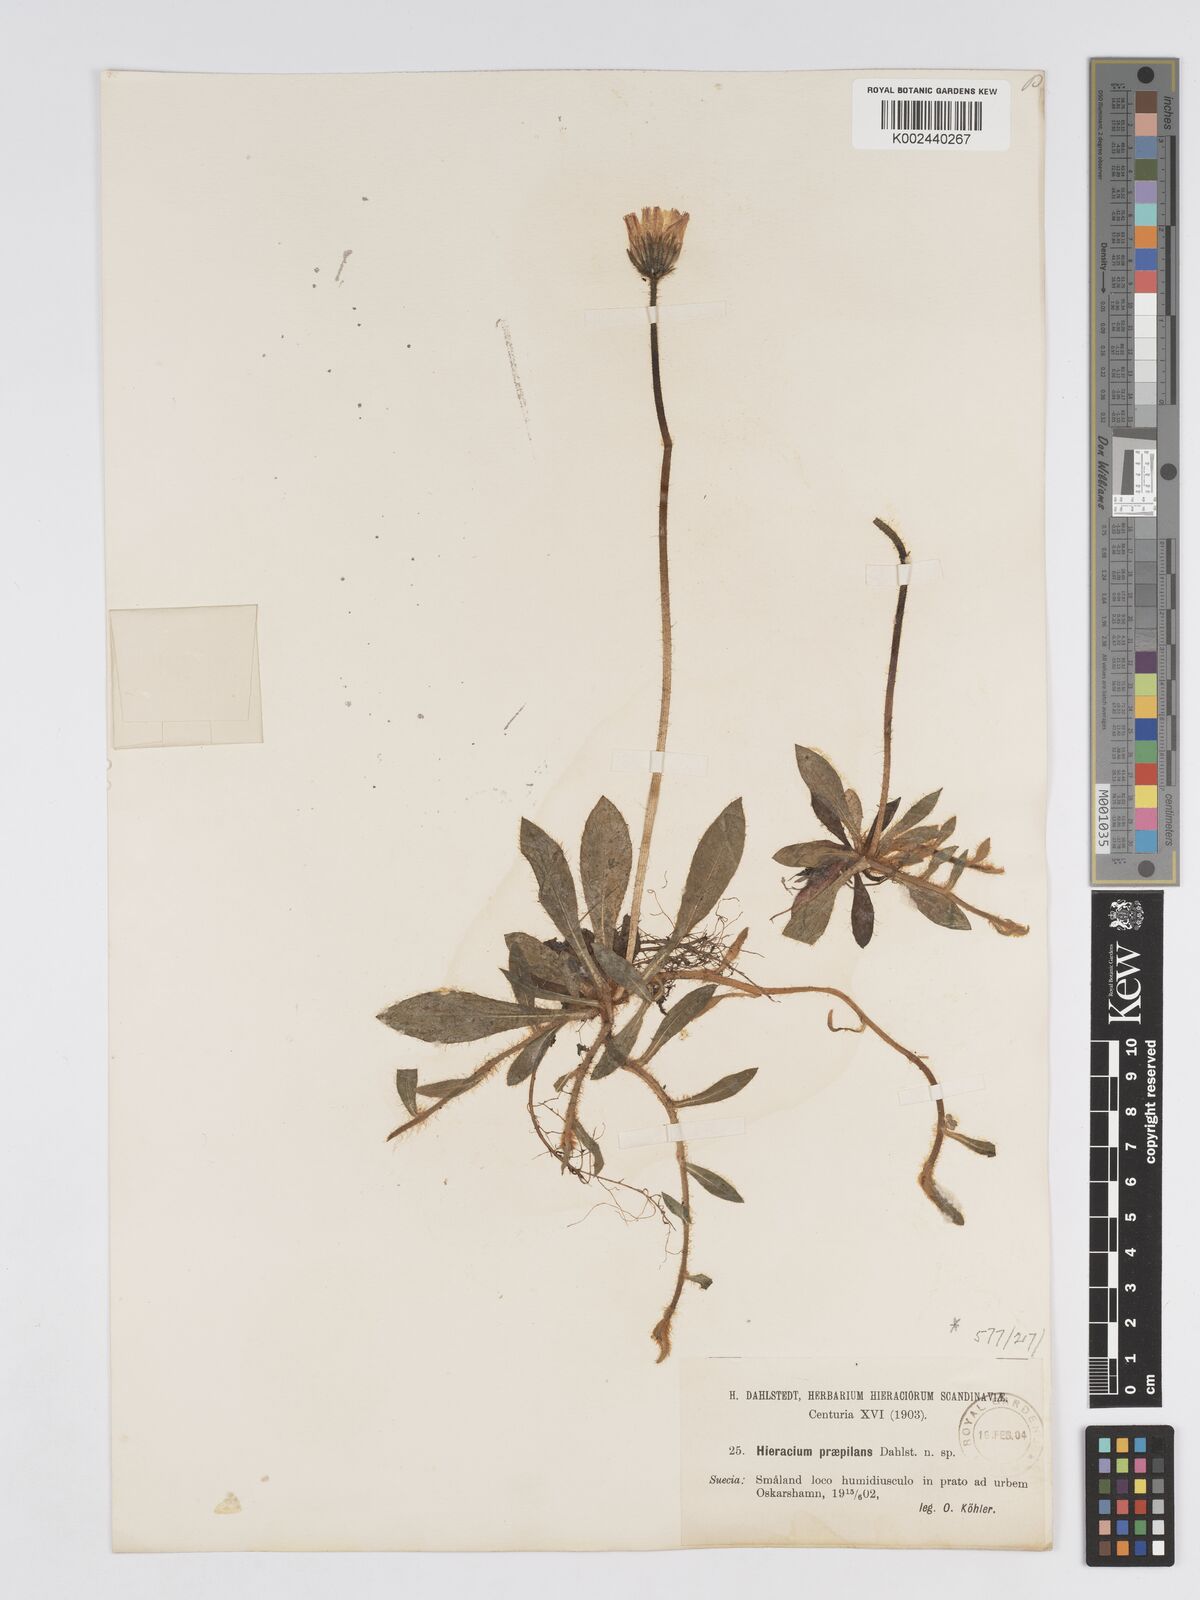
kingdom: Plantae
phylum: Tracheophyta
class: Magnoliopsida
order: Asterales
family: Asteraceae
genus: Pilosella
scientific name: Pilosella officinarum
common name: Mouse-ear hawkweed
